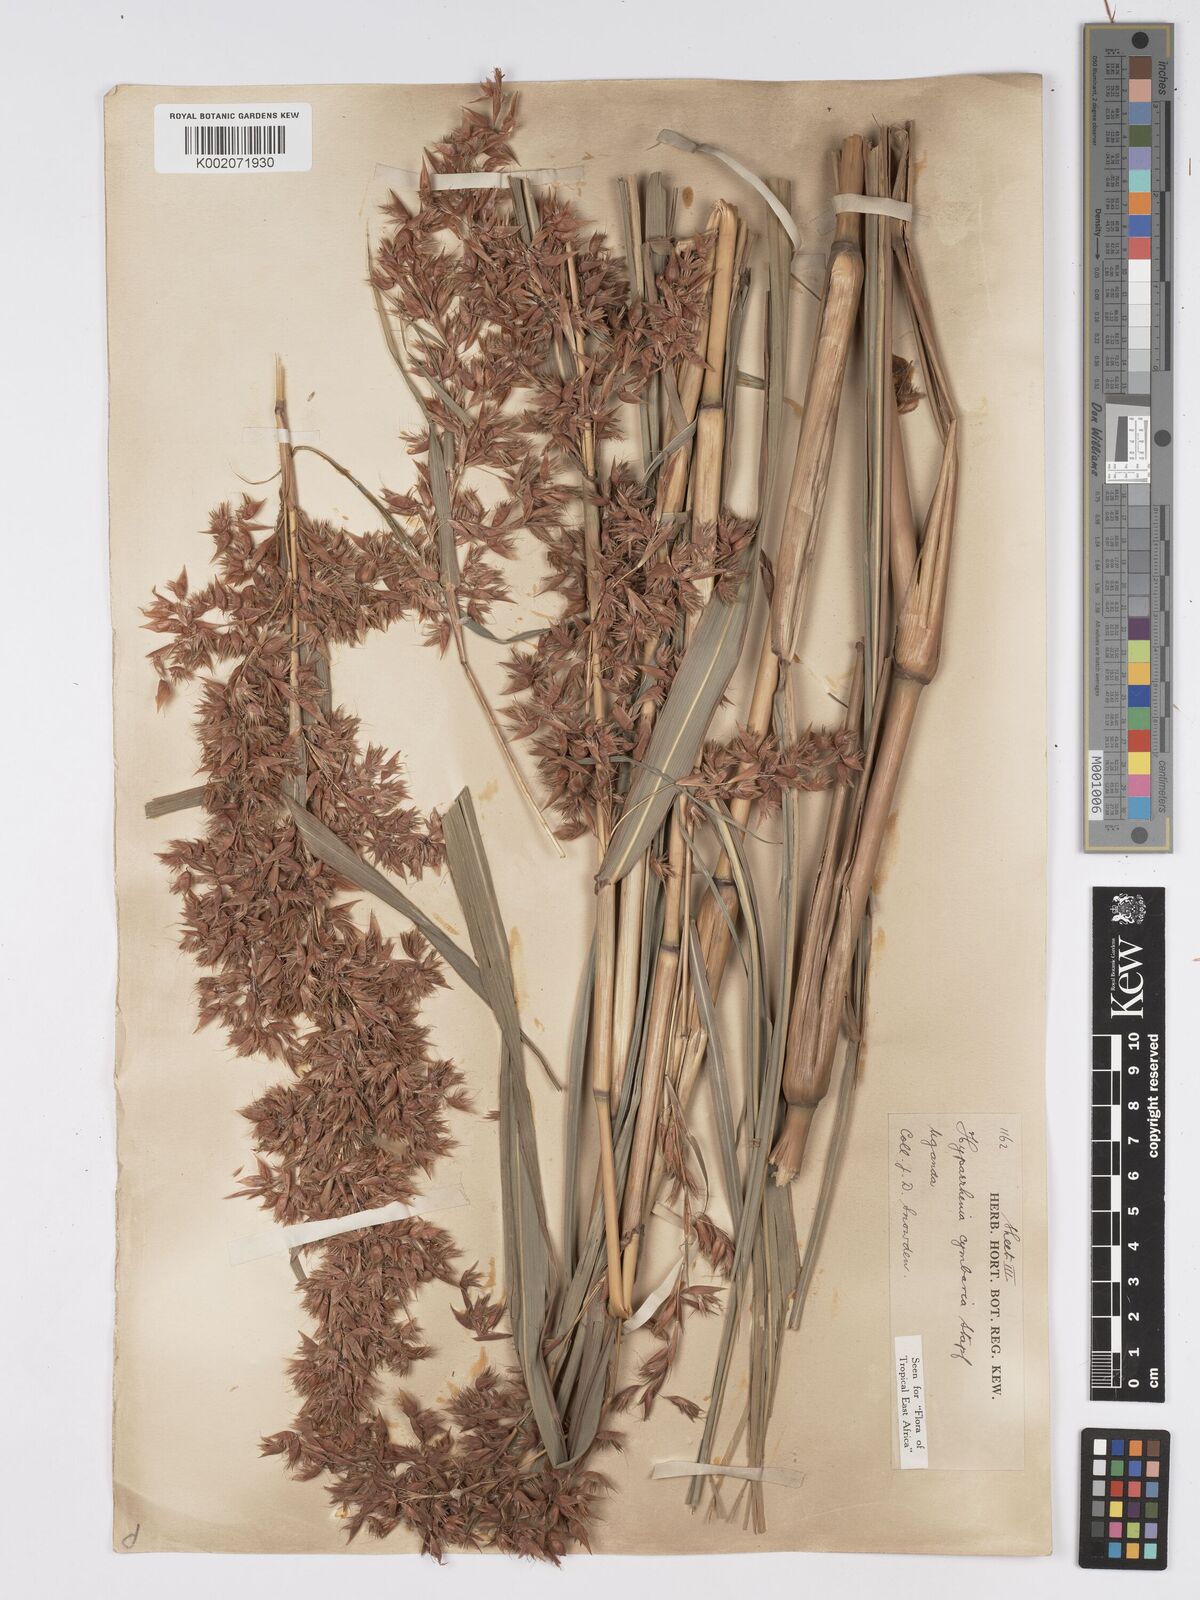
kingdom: Plantae
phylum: Tracheophyta
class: Liliopsida
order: Poales
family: Poaceae
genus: Hyparrhenia
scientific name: Hyparrhenia cymbaria
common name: Boat thatching grass
